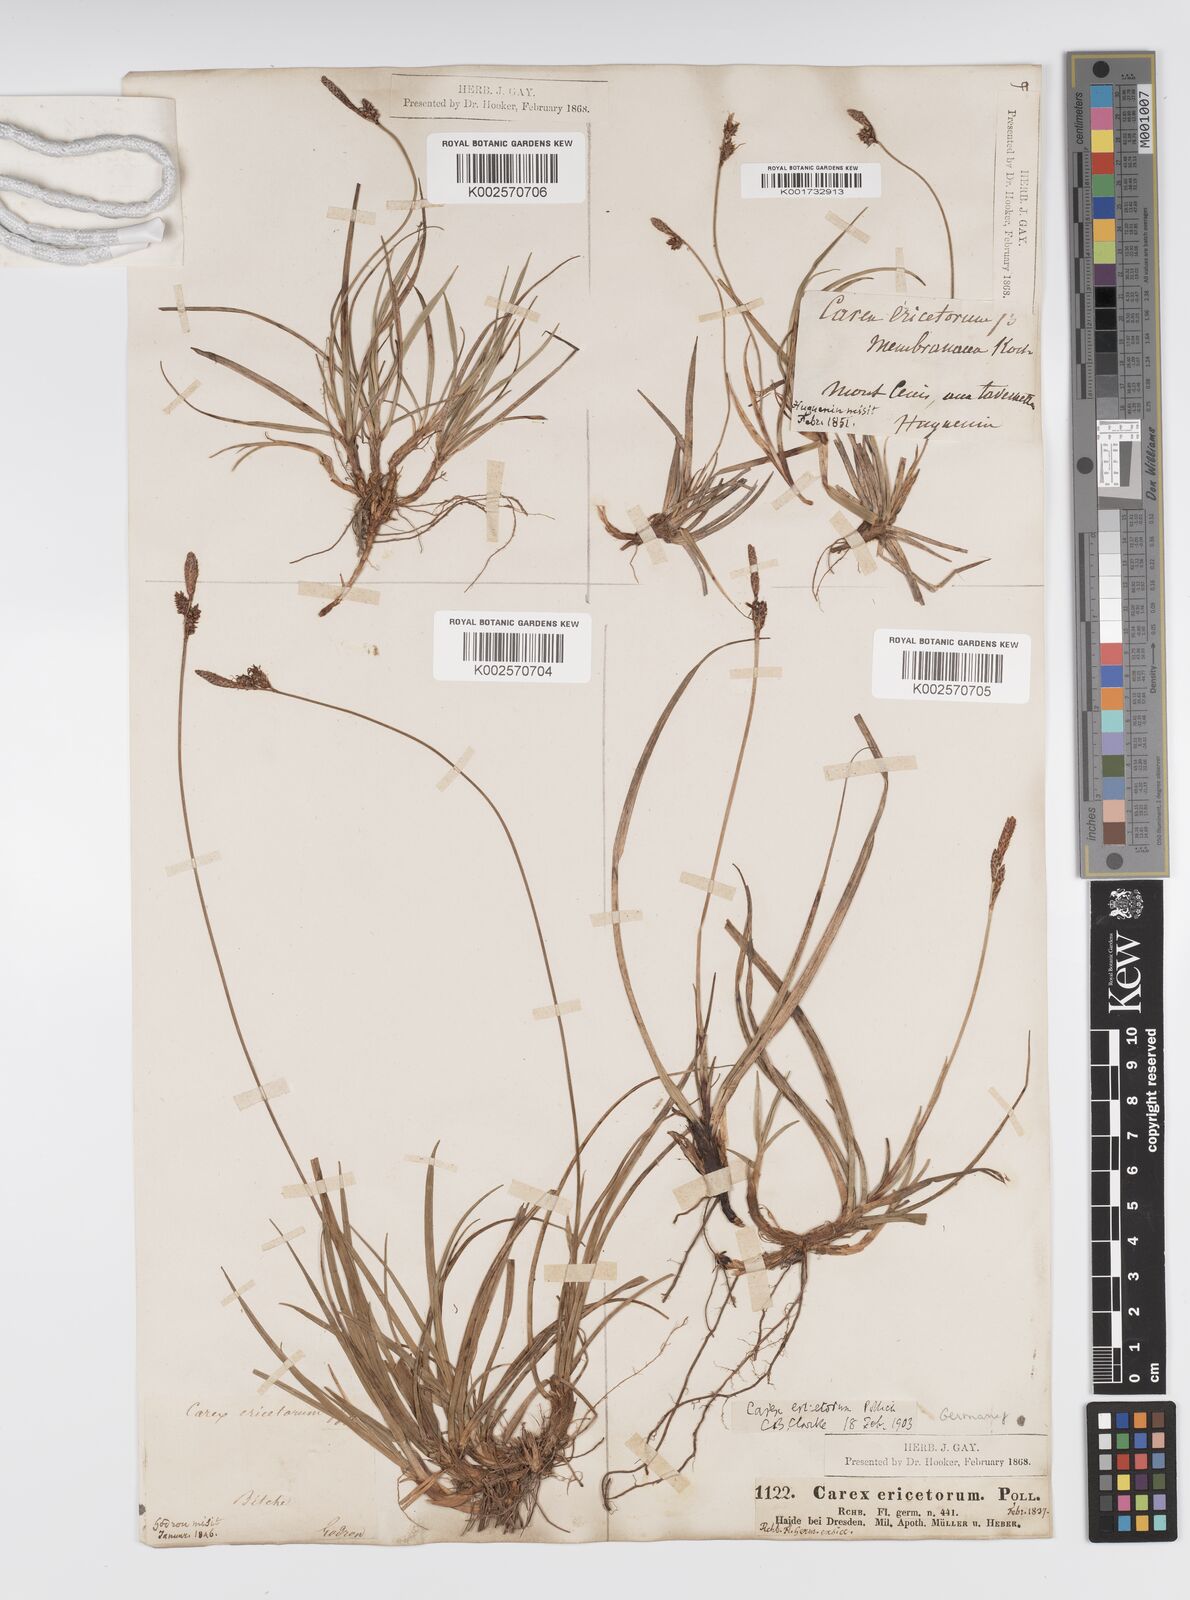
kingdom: Plantae
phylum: Tracheophyta
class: Liliopsida
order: Poales
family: Cyperaceae
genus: Carex
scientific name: Carex ericetorum
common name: Rare spring-sedge
